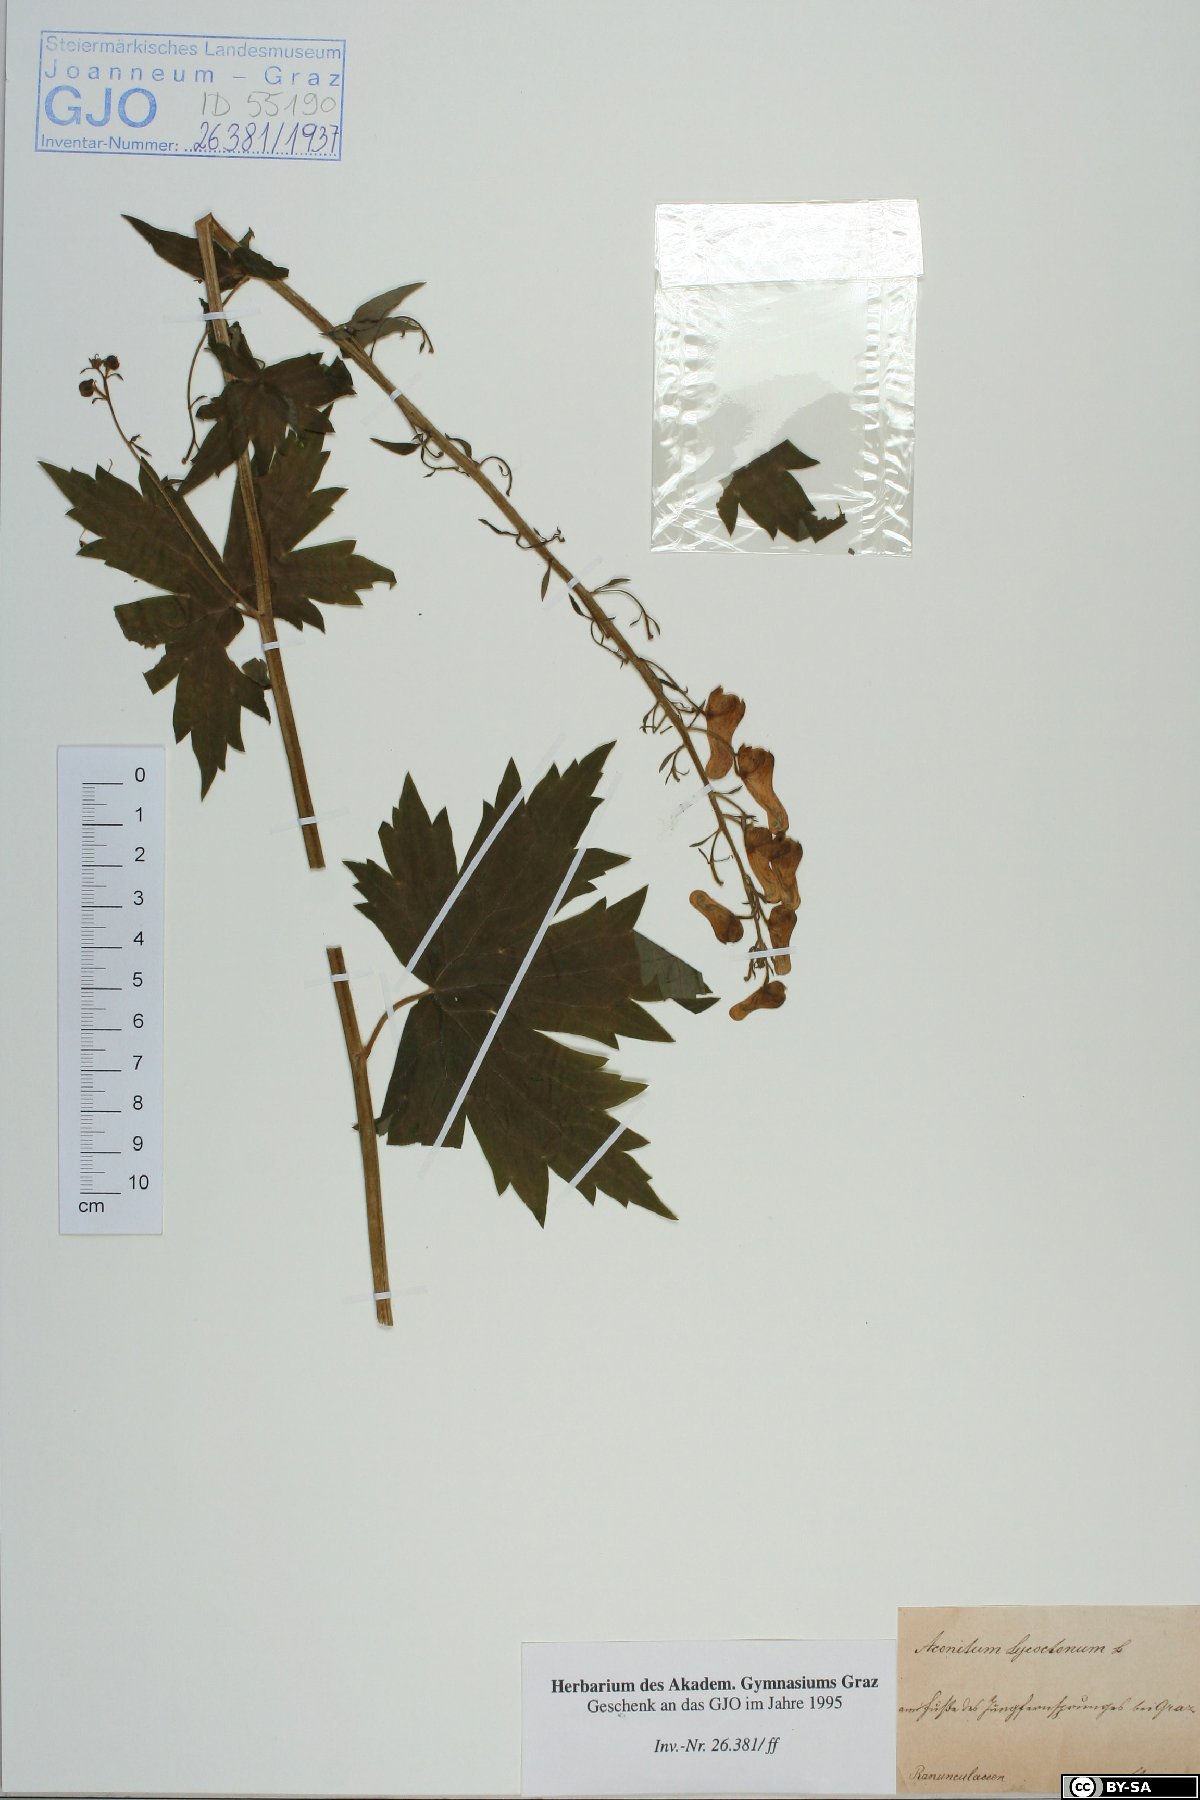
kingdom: Plantae
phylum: Tracheophyta
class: Magnoliopsida
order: Ranunculales
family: Ranunculaceae
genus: Aconitum
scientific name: Aconitum lycoctonum
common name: Wolf's-bane
